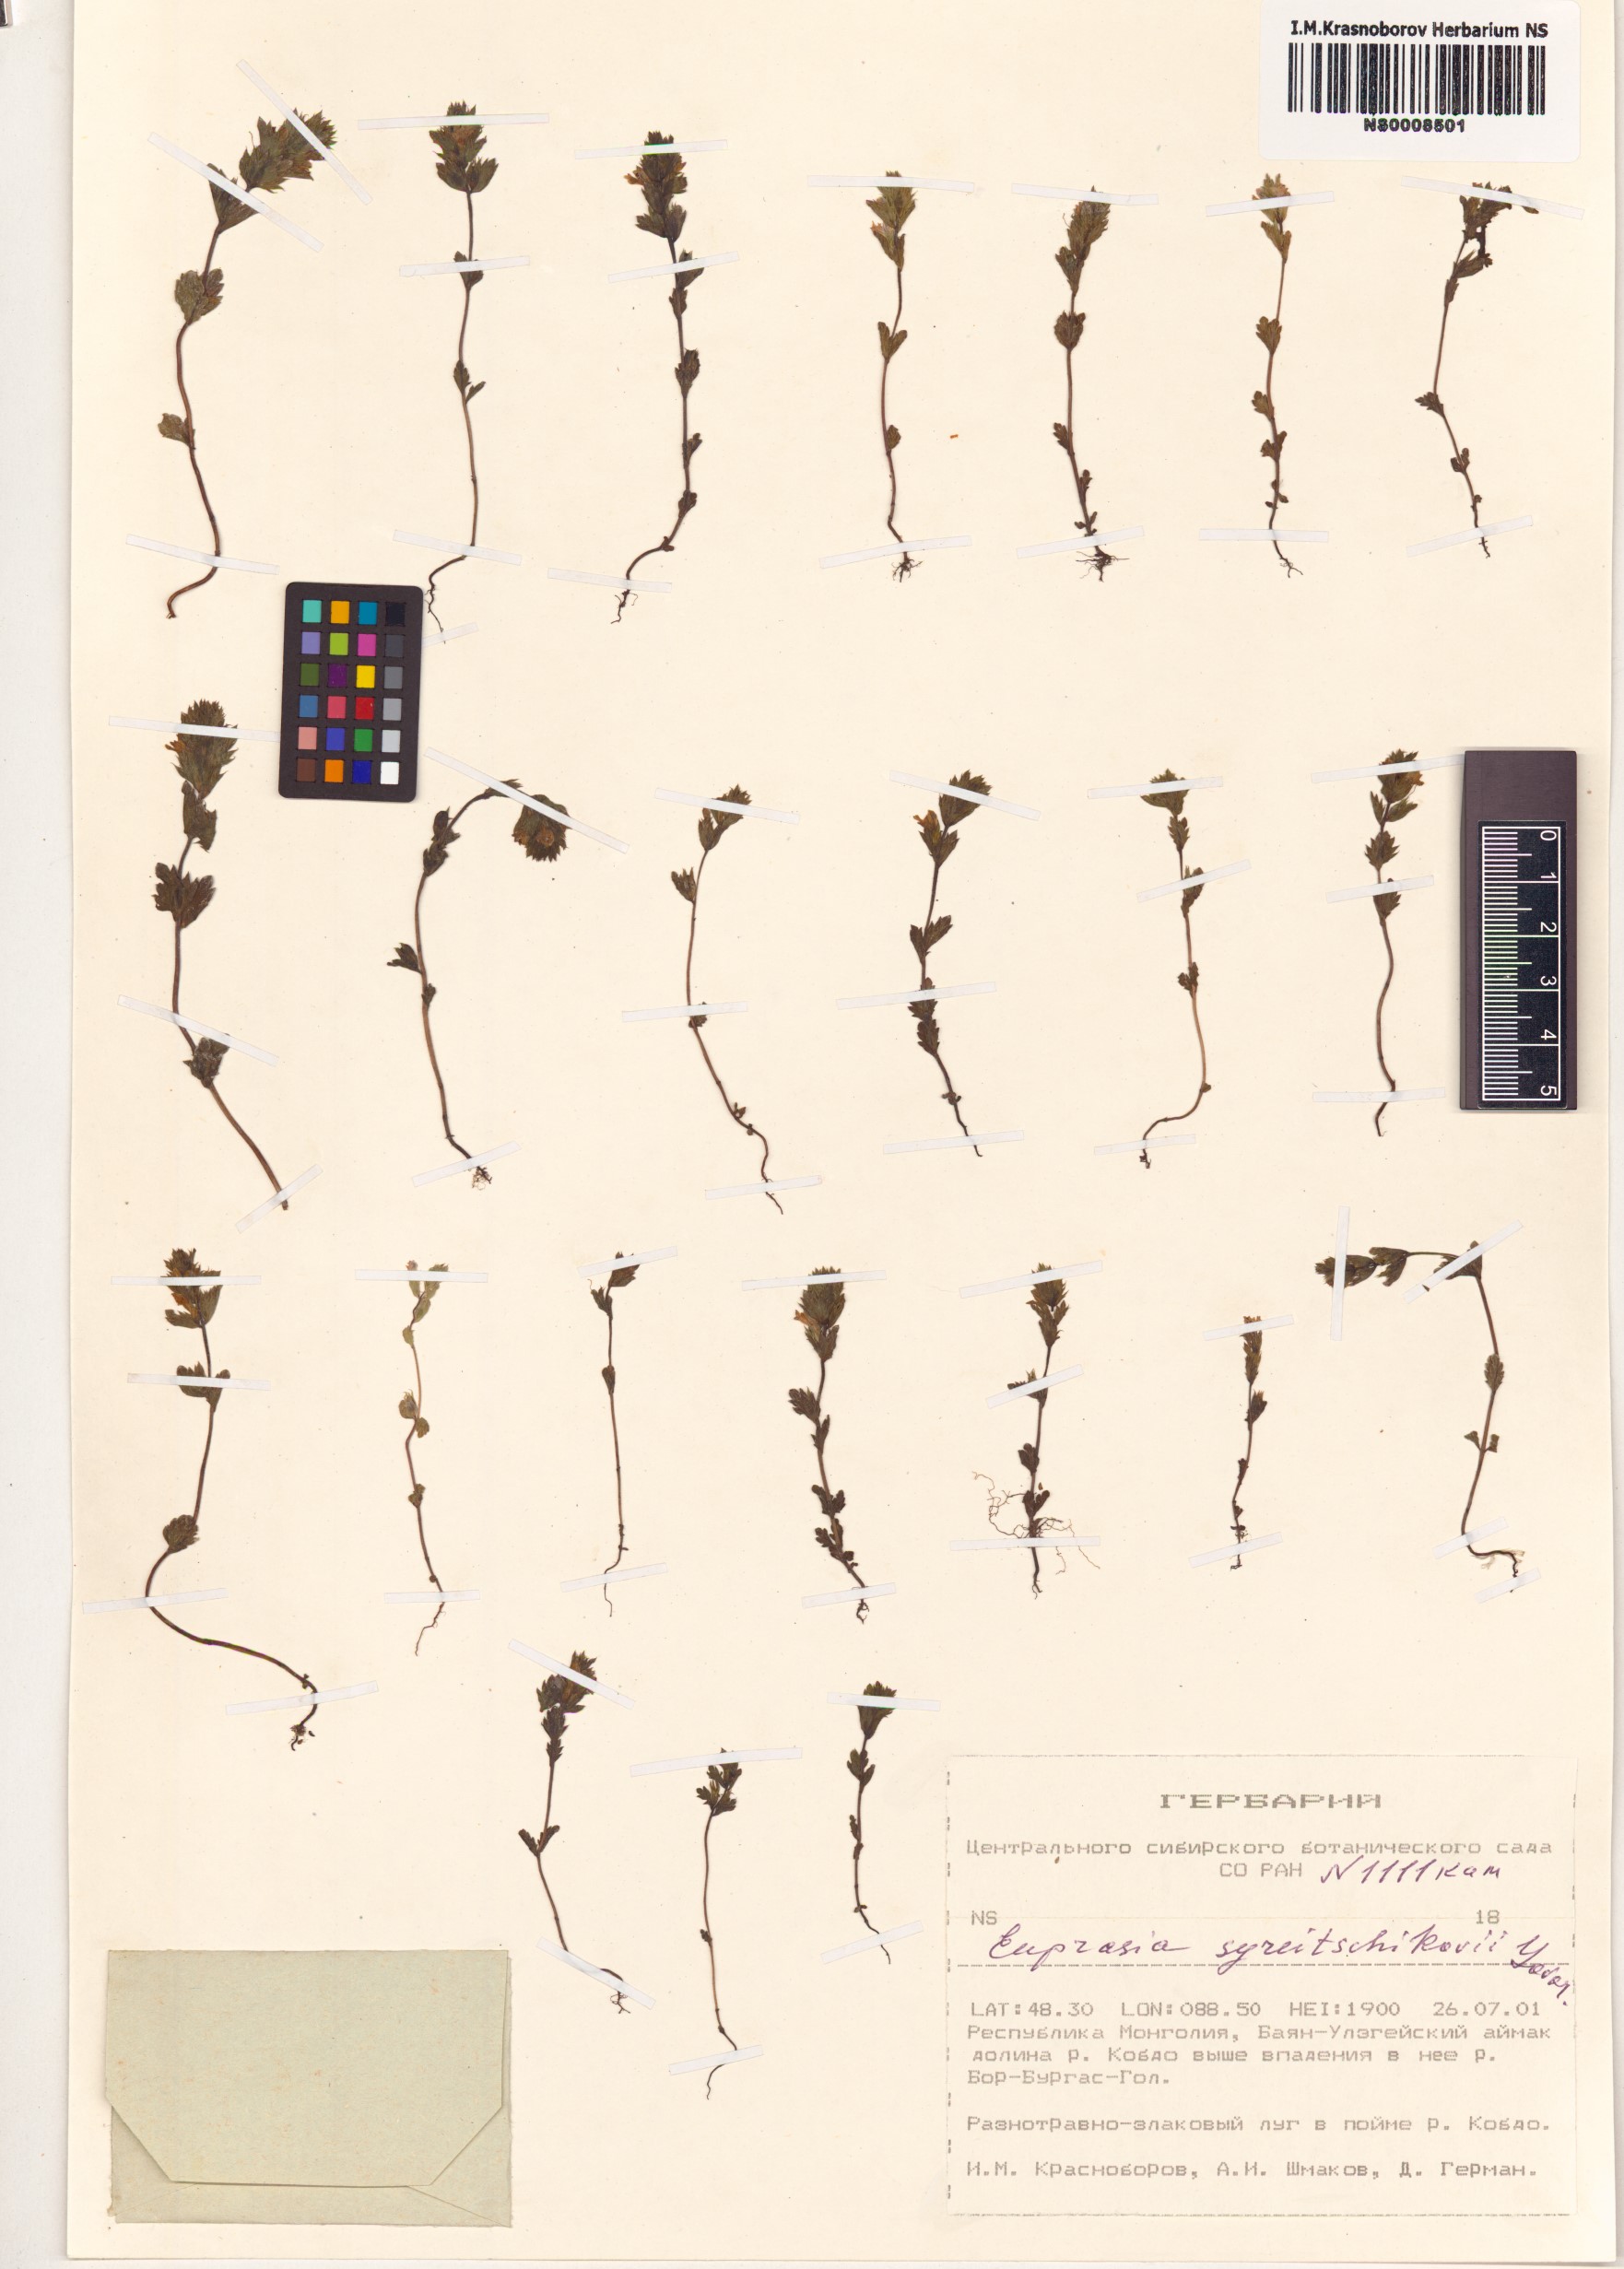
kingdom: Plantae
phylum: Tracheophyta
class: Magnoliopsida
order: Lamiales
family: Orobanchaceae
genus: Euphrasia
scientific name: Euphrasia syreitschikovii
